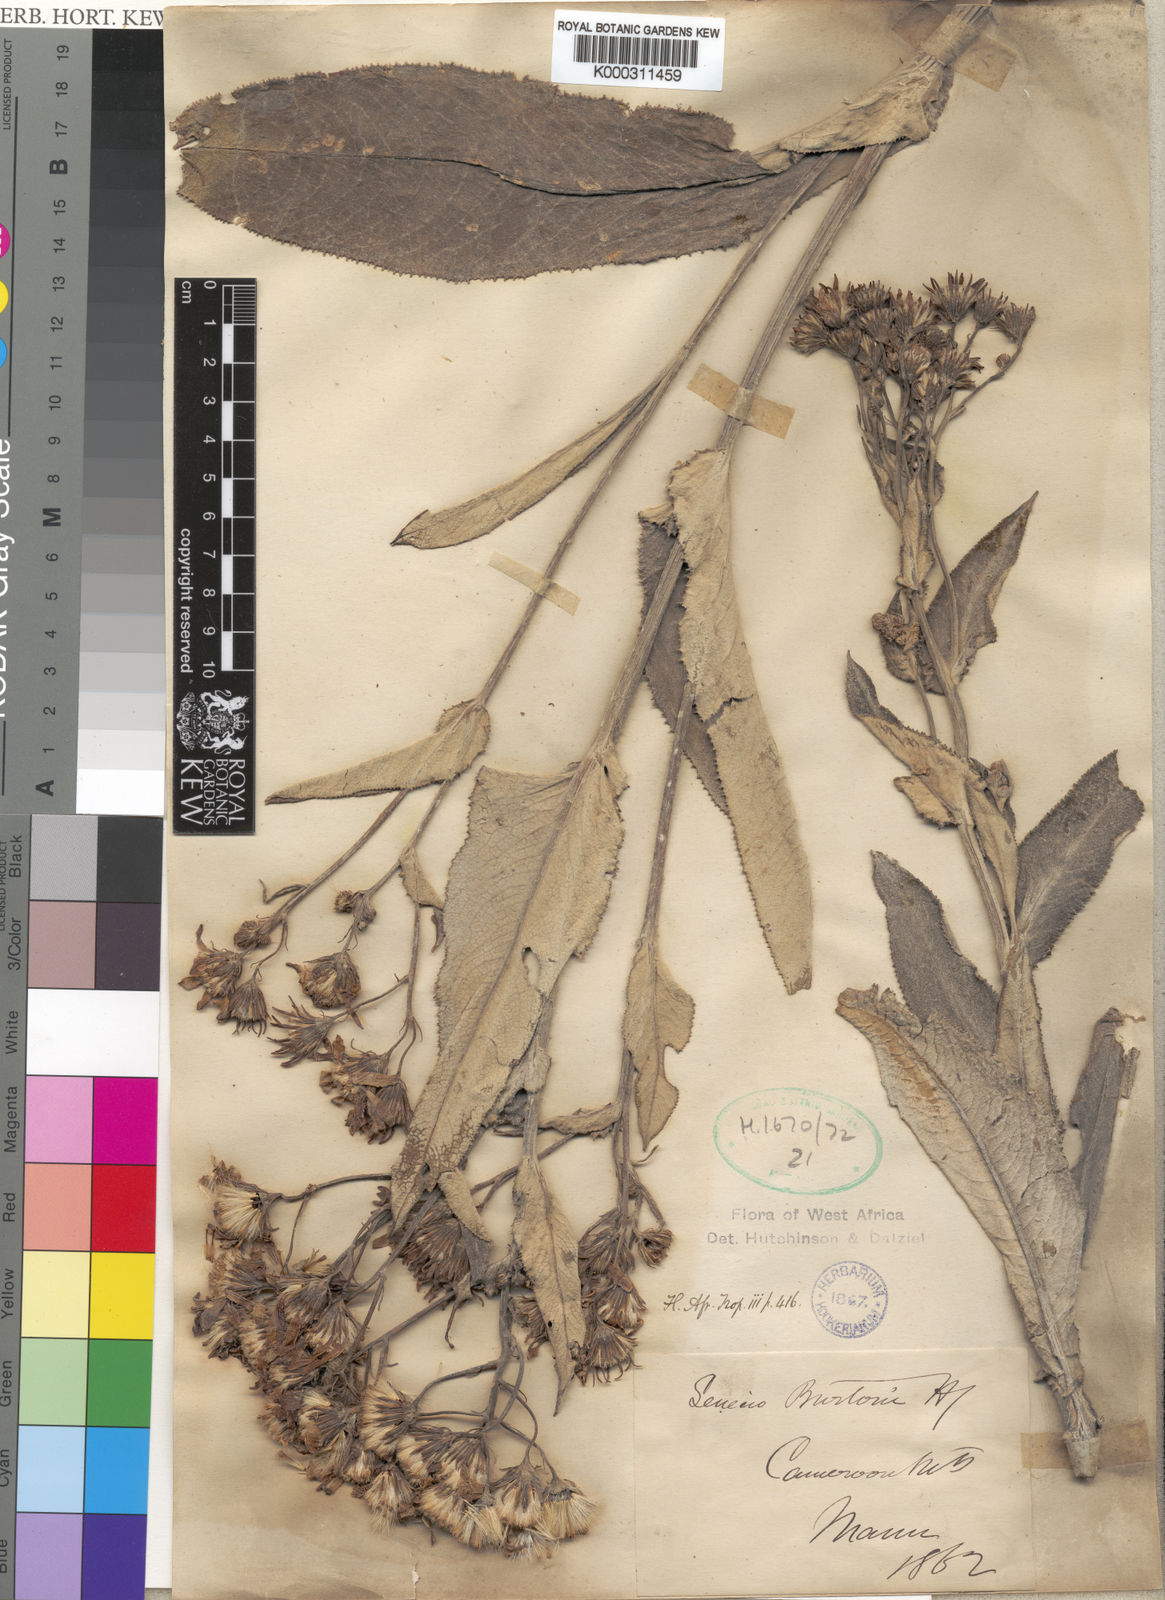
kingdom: Plantae
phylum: Tracheophyta
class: Magnoliopsida
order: Asterales
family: Asteraceae
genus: Senecio
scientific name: Senecio burtonii
